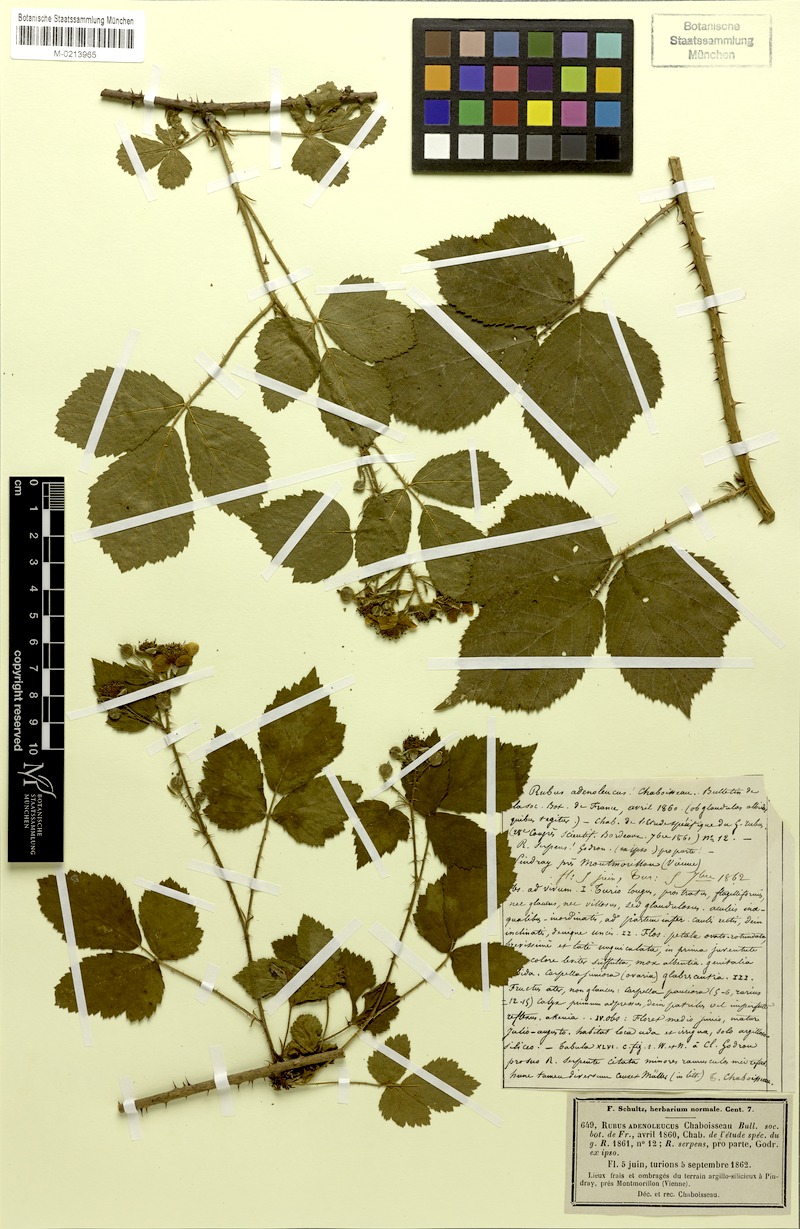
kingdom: Plantae
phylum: Tracheophyta
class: Magnoliopsida
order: Rosales
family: Rosaceae
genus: Rubus
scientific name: Rubus adenoleucus
